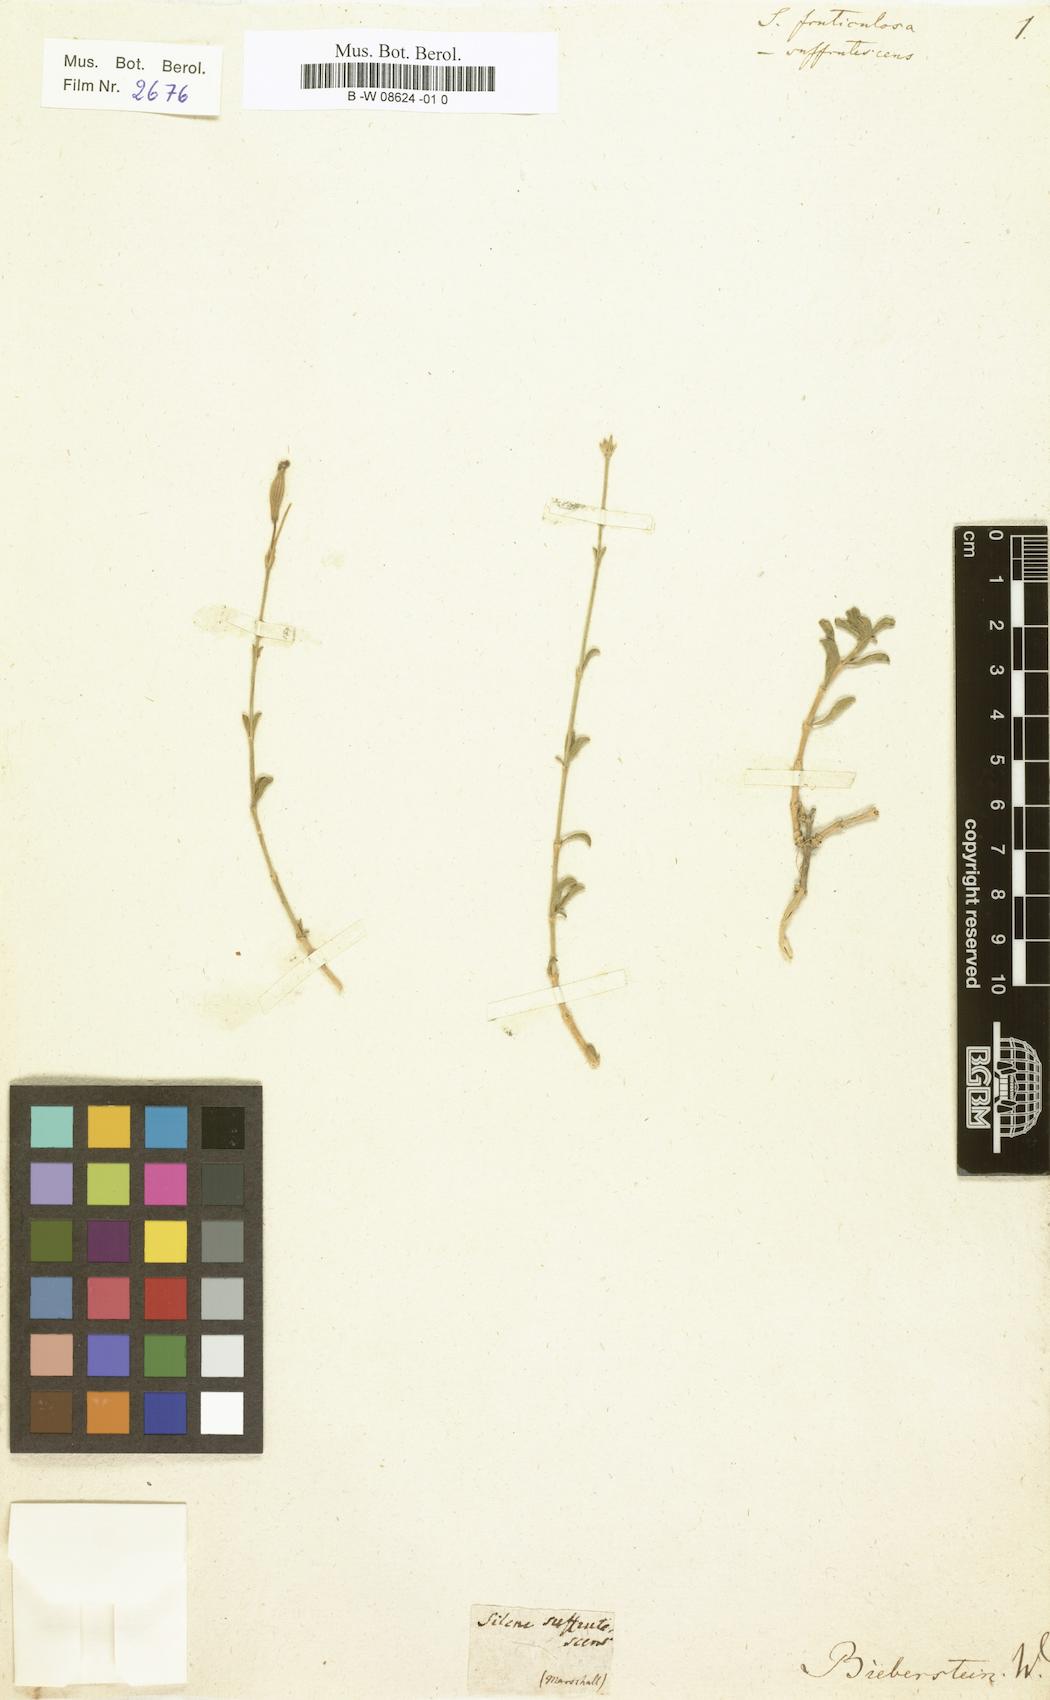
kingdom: Plantae
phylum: Tracheophyta
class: Magnoliopsida
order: Caryophyllales
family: Caryophyllaceae
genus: Silene
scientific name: Silene fruticulosa
